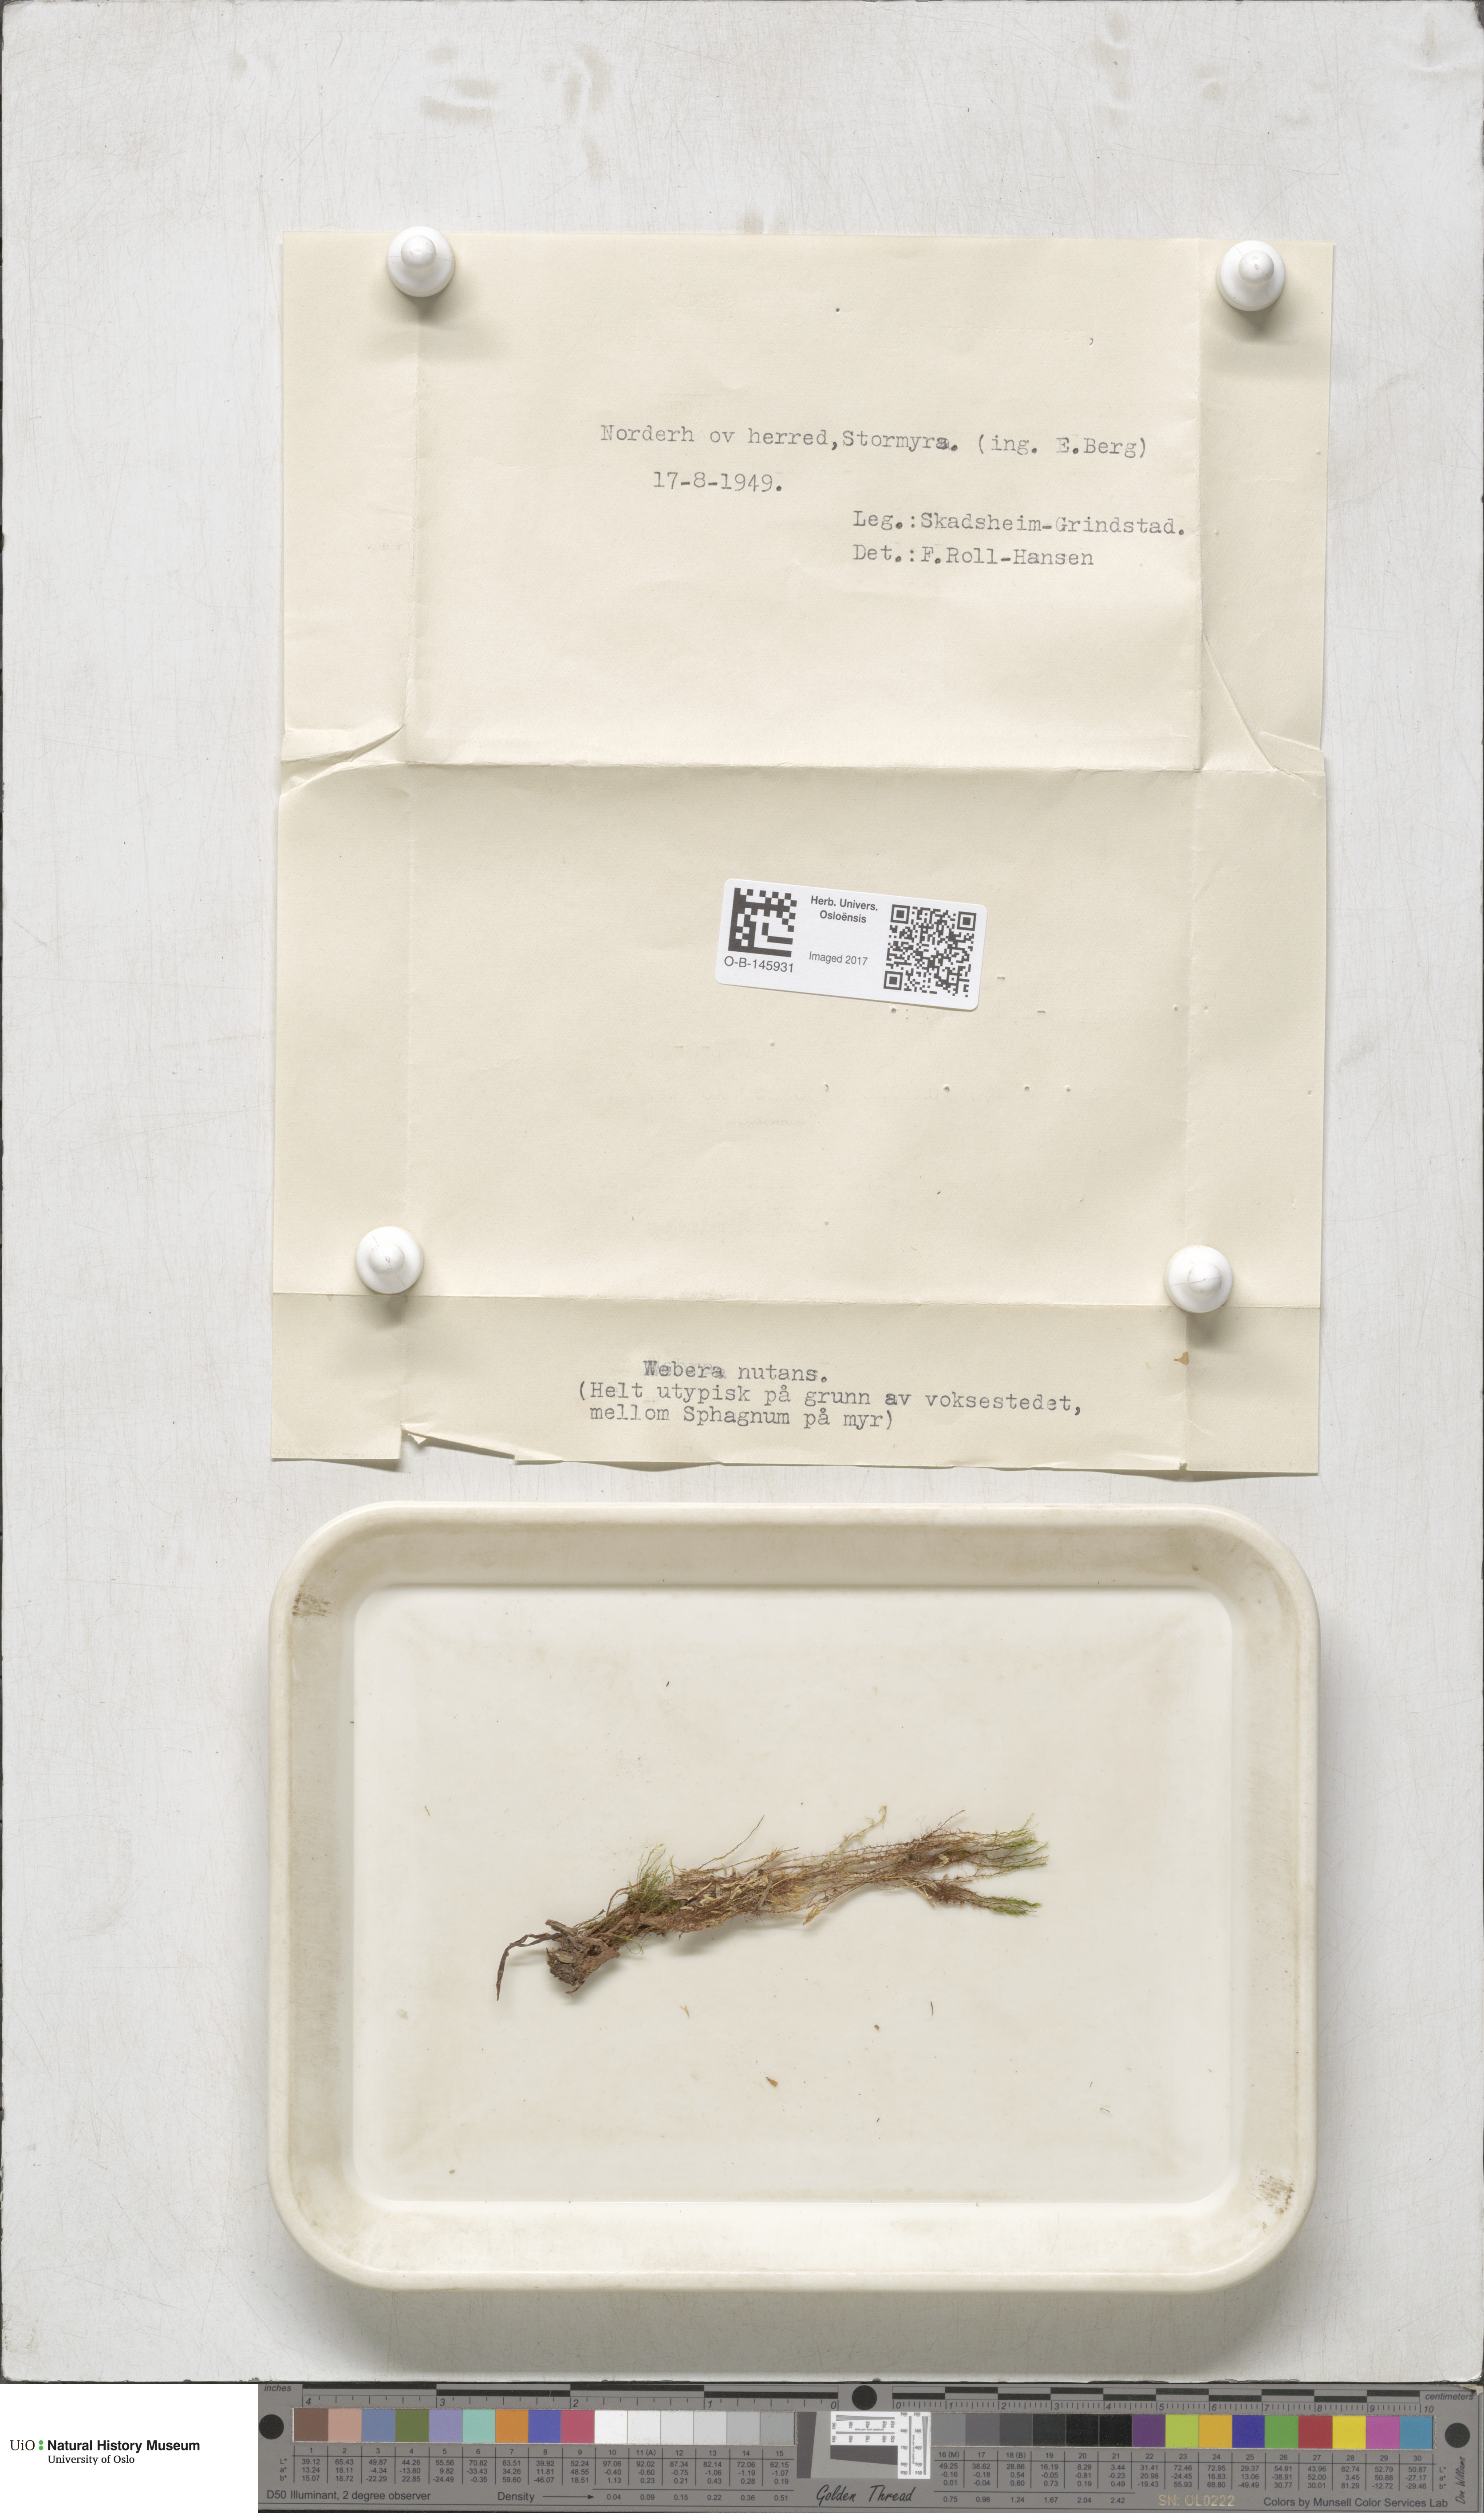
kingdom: Plantae
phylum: Bryophyta
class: Bryopsida
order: Bryales
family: Mniaceae
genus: Pohlia
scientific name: Pohlia nutans
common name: Nodding thread-moss
